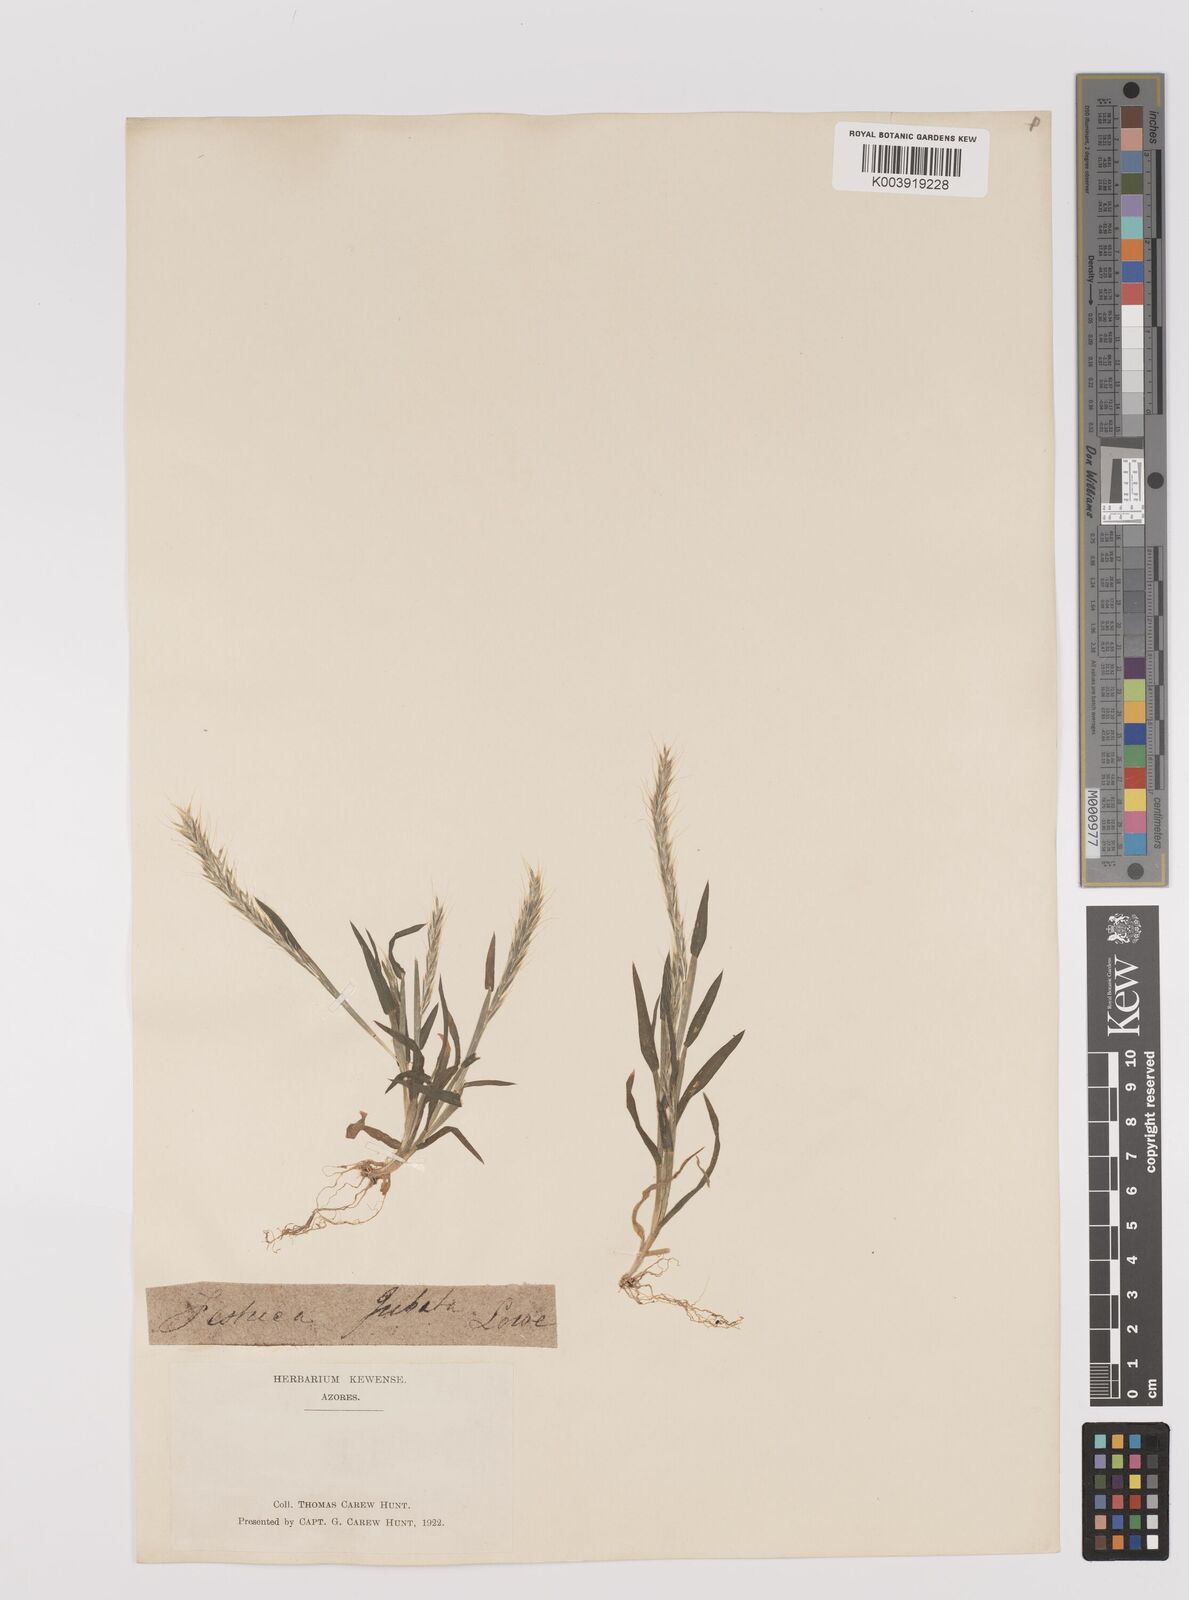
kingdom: Plantae
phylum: Tracheophyta
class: Liliopsida
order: Poales
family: Poaceae
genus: Gaudinia
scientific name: Gaudinia coarctata
